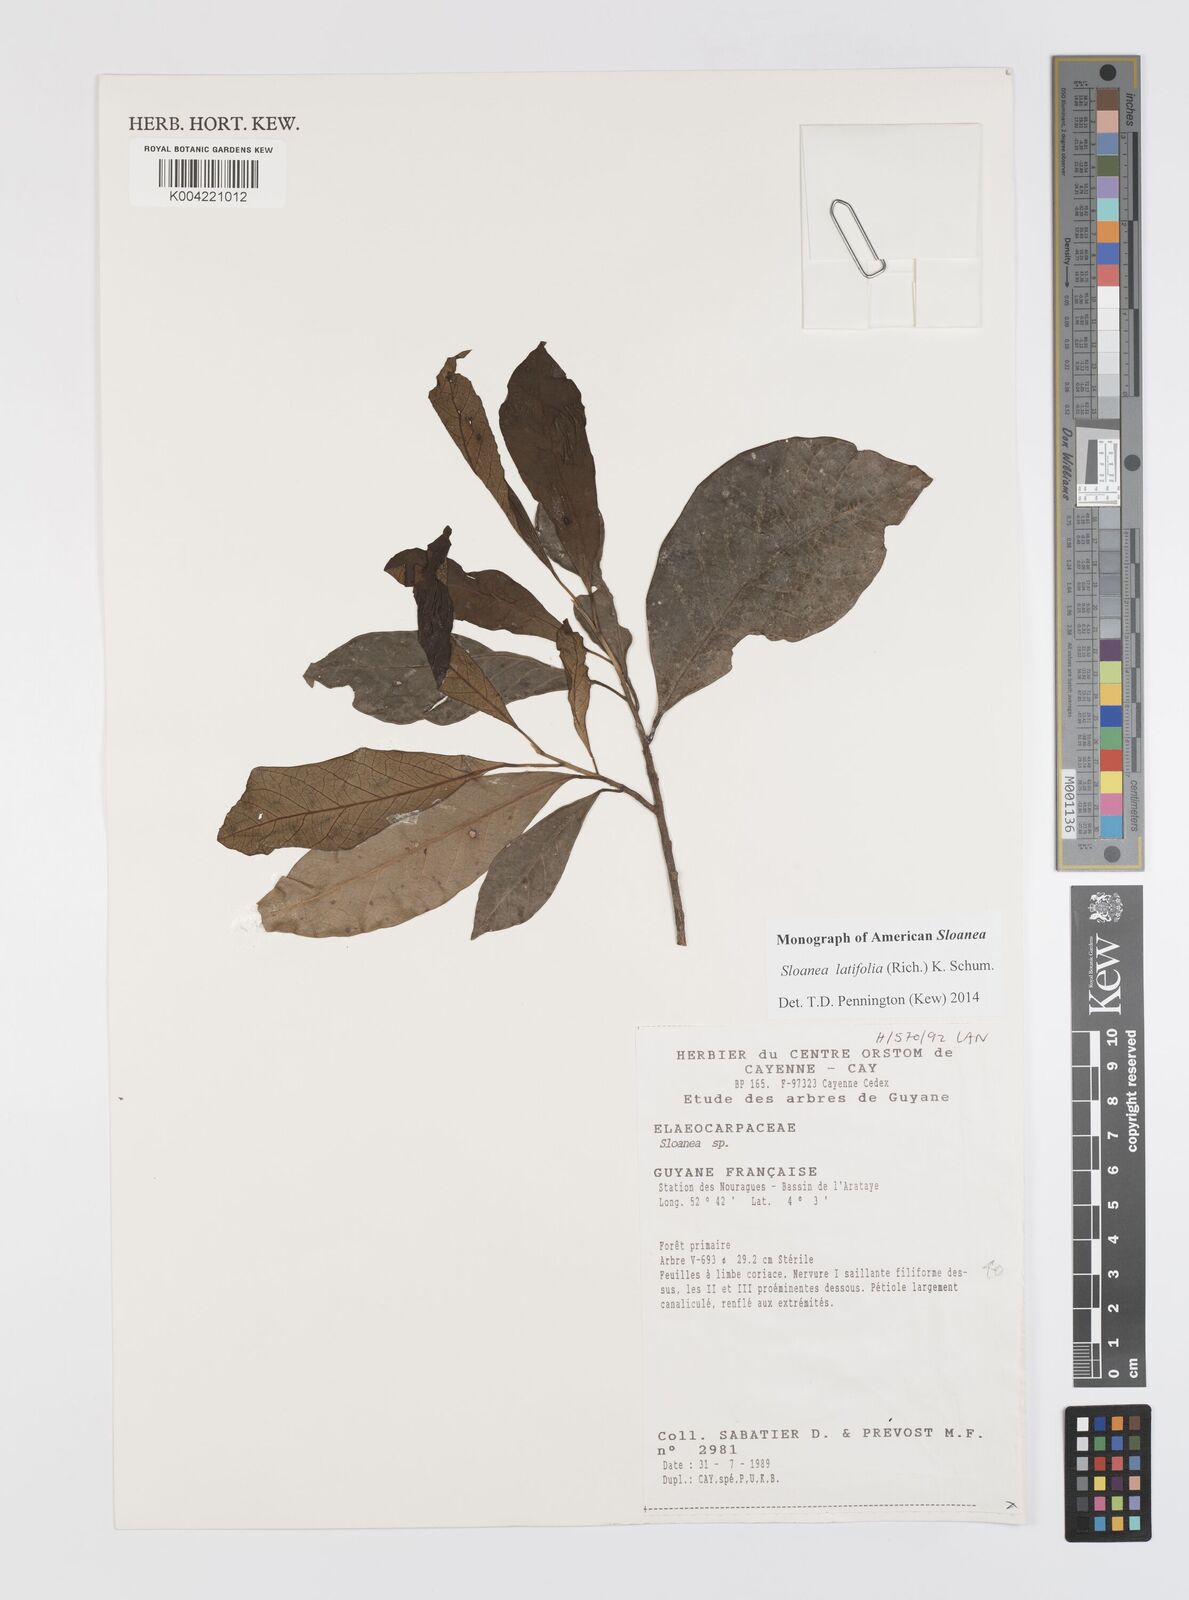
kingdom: Plantae
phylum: Tracheophyta
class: Magnoliopsida
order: Oxalidales
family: Elaeocarpaceae
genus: Sloanea
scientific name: Sloanea latifolia
